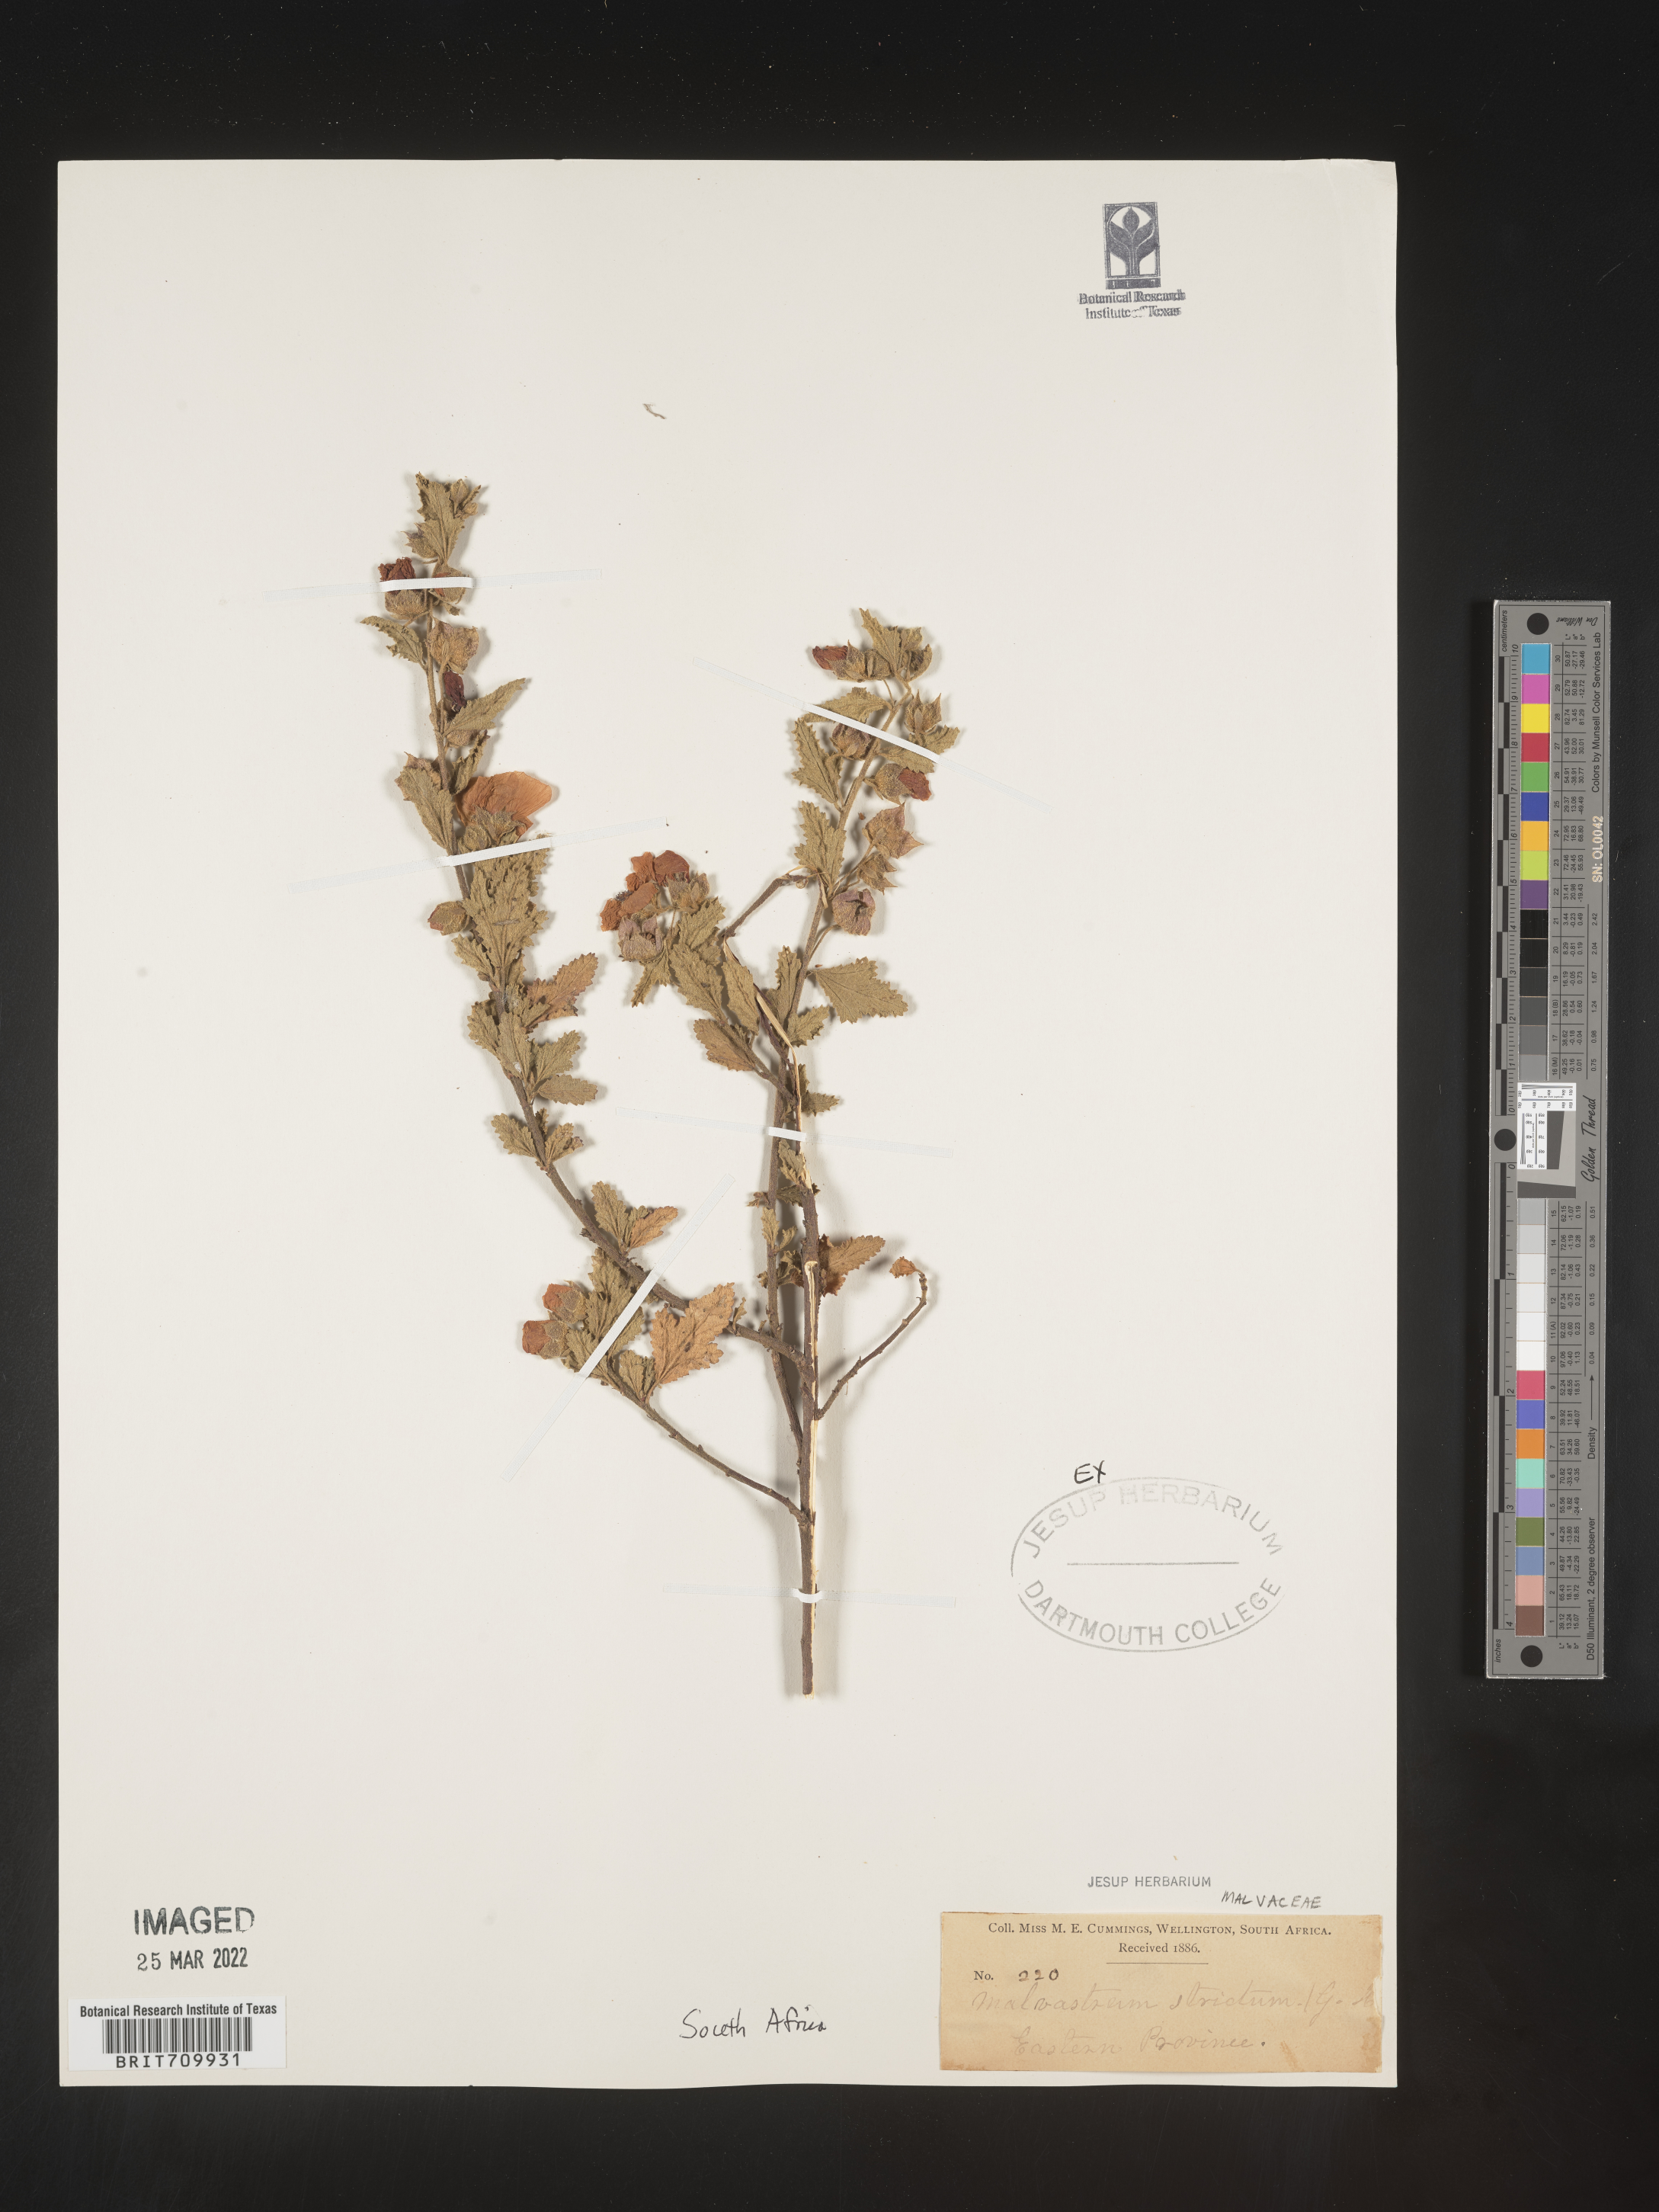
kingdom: Plantae
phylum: Tracheophyta
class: Magnoliopsida
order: Malvales
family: Malvaceae
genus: Malvastrum
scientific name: Malvastrum
